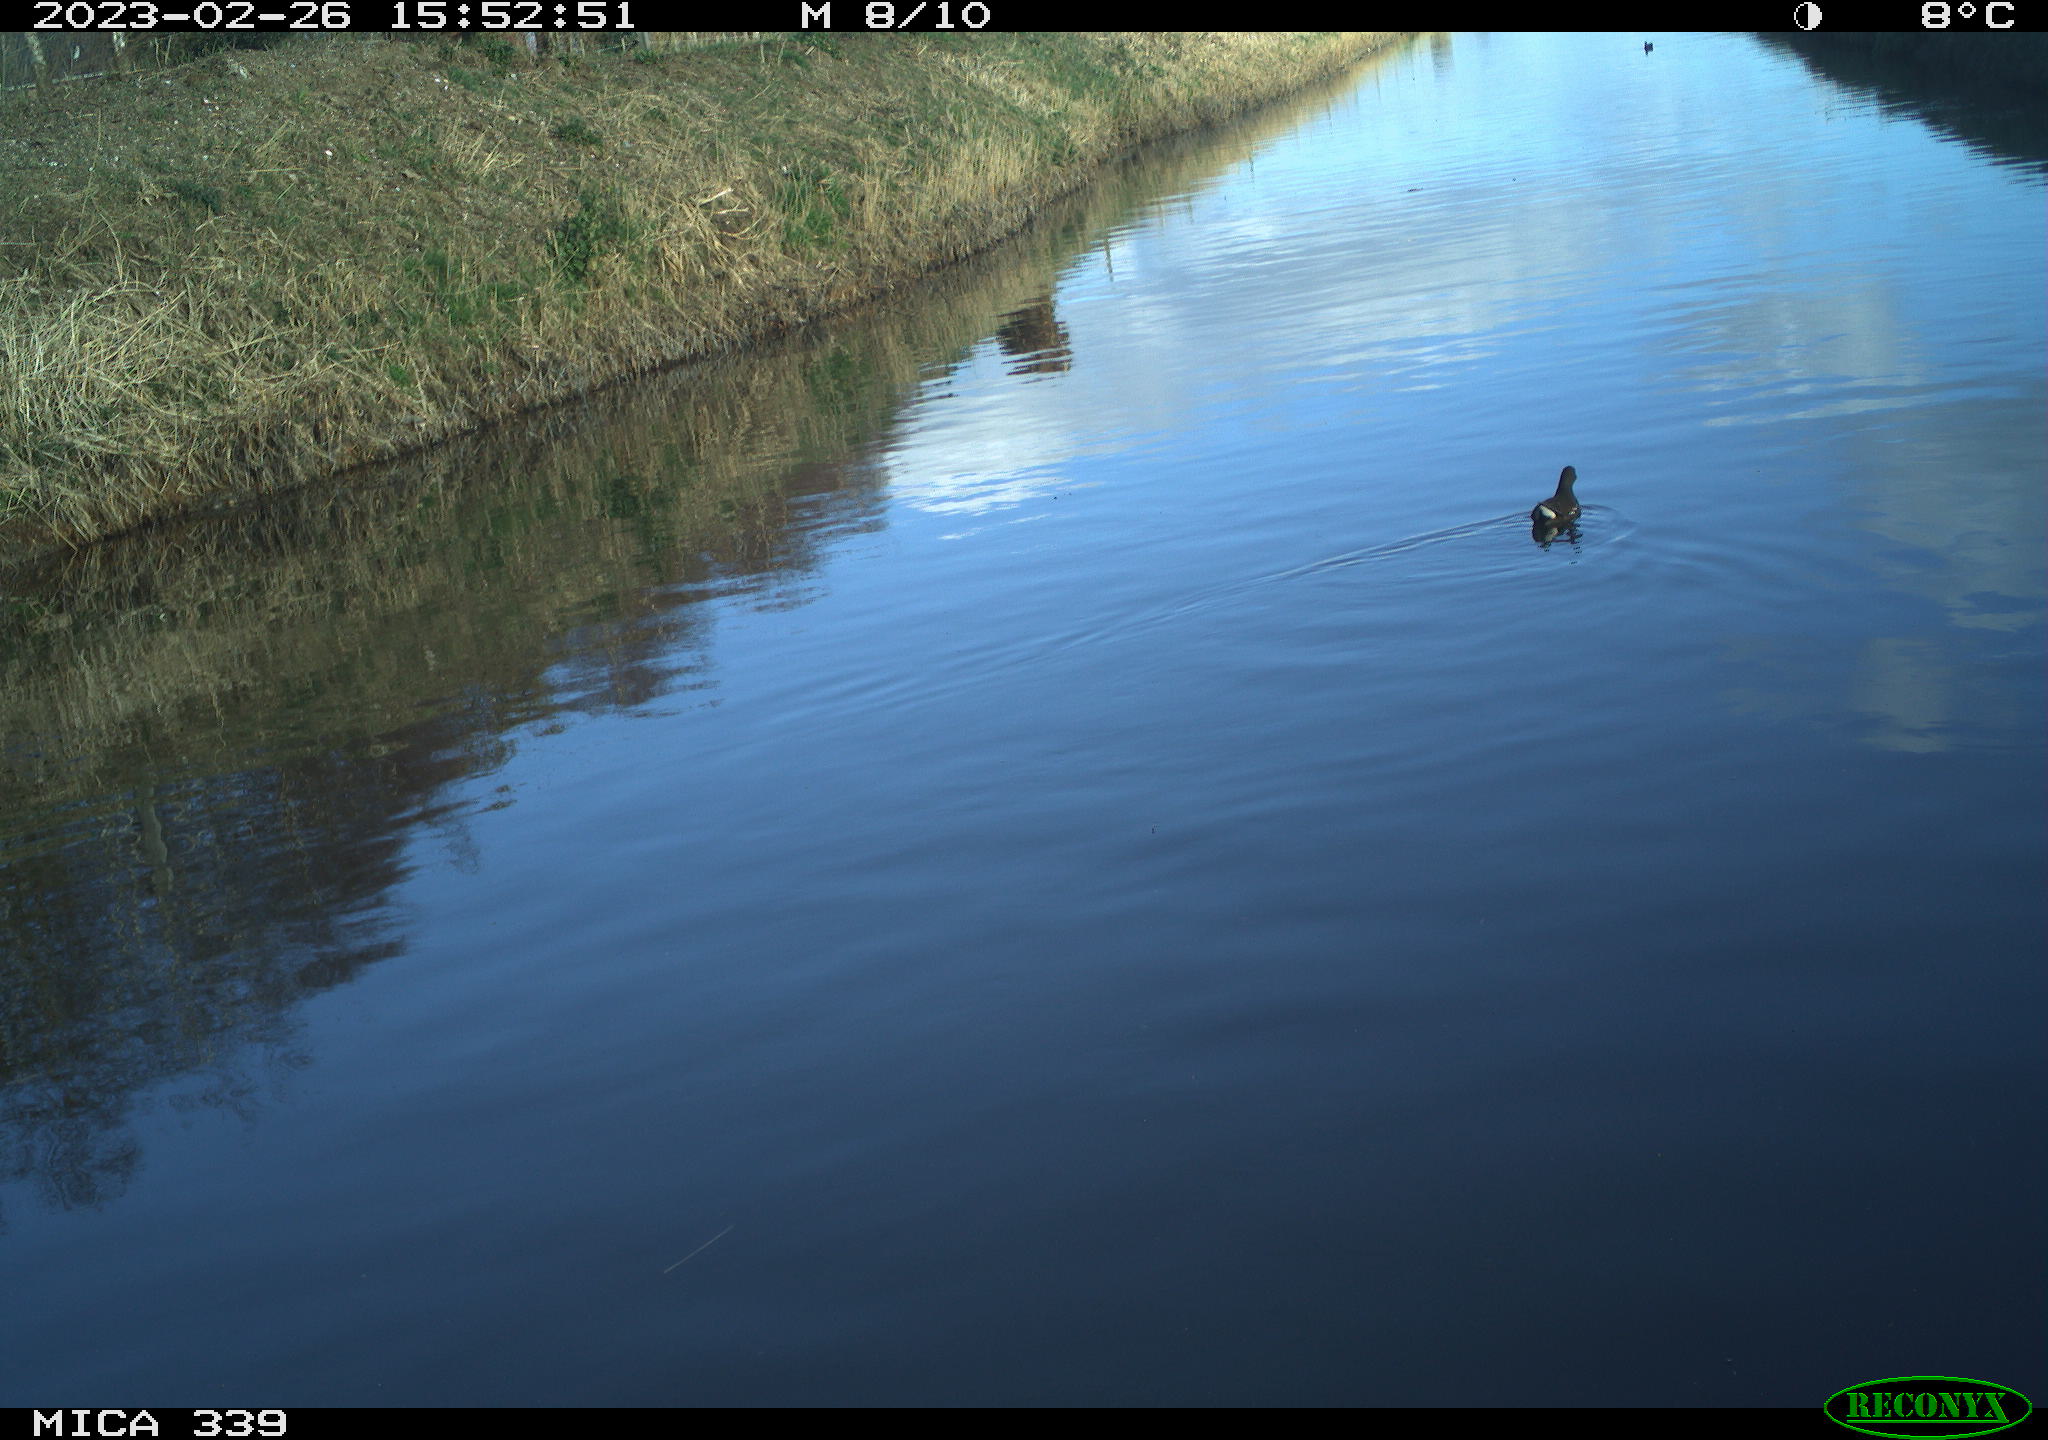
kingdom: Animalia
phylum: Chordata
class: Aves
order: Gruiformes
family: Rallidae
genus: Gallinula
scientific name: Gallinula chloropus
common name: Common moorhen
